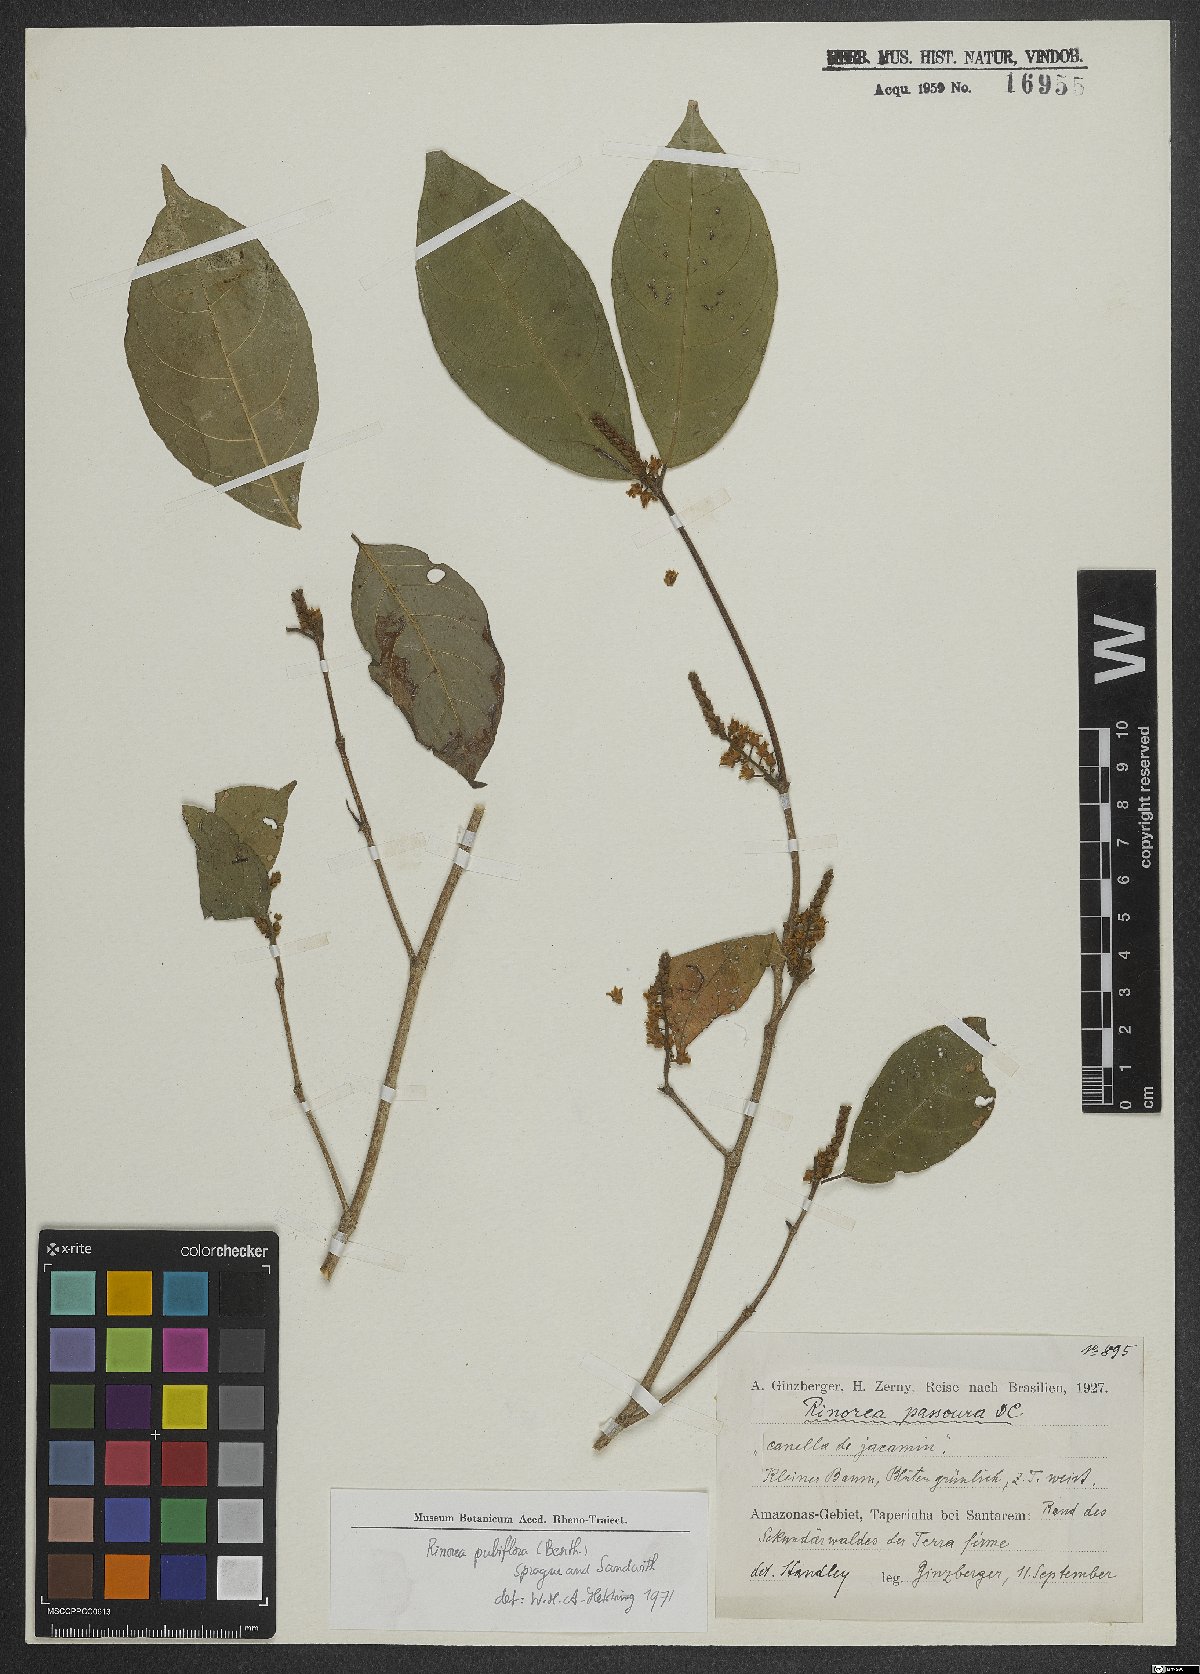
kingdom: Plantae
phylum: Tracheophyta
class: Magnoliopsida
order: Malpighiales
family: Violaceae
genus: Rinorea
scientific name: Rinorea pubiflora
